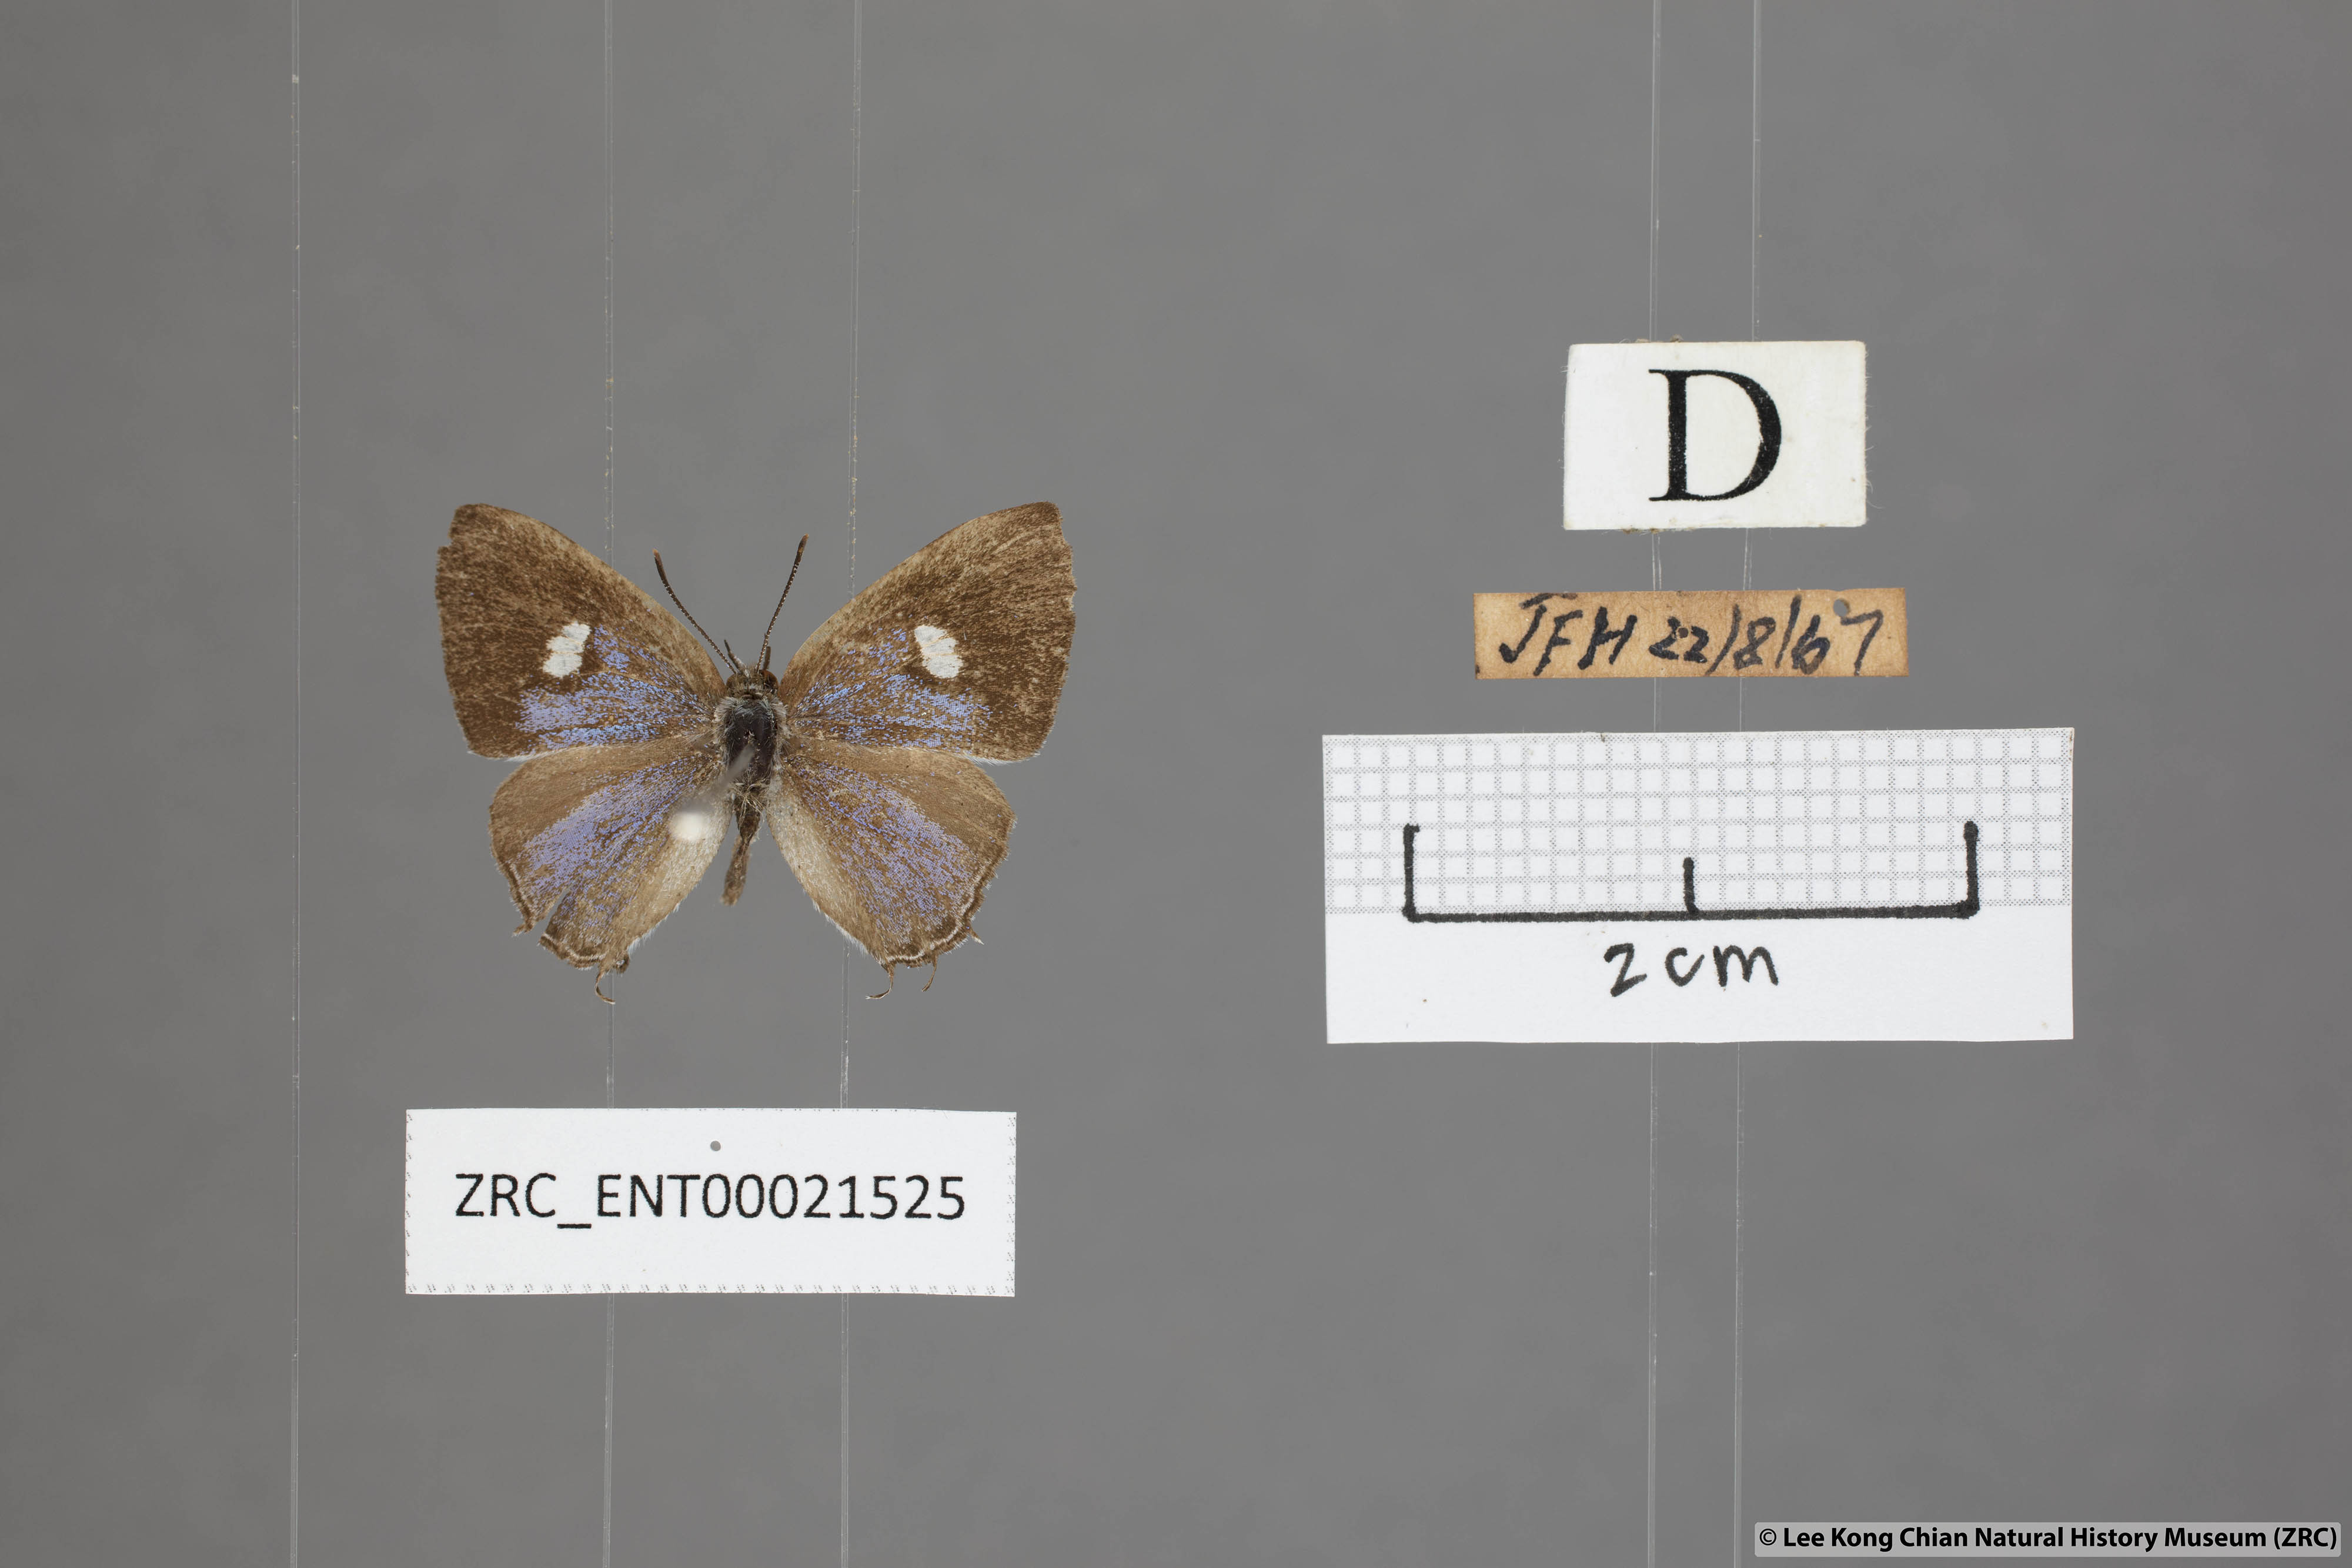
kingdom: Animalia
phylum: Arthropoda
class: Insecta
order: Lepidoptera
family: Lycaenidae
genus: Horaga
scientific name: Horaga syrinx
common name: Ambon onyx
